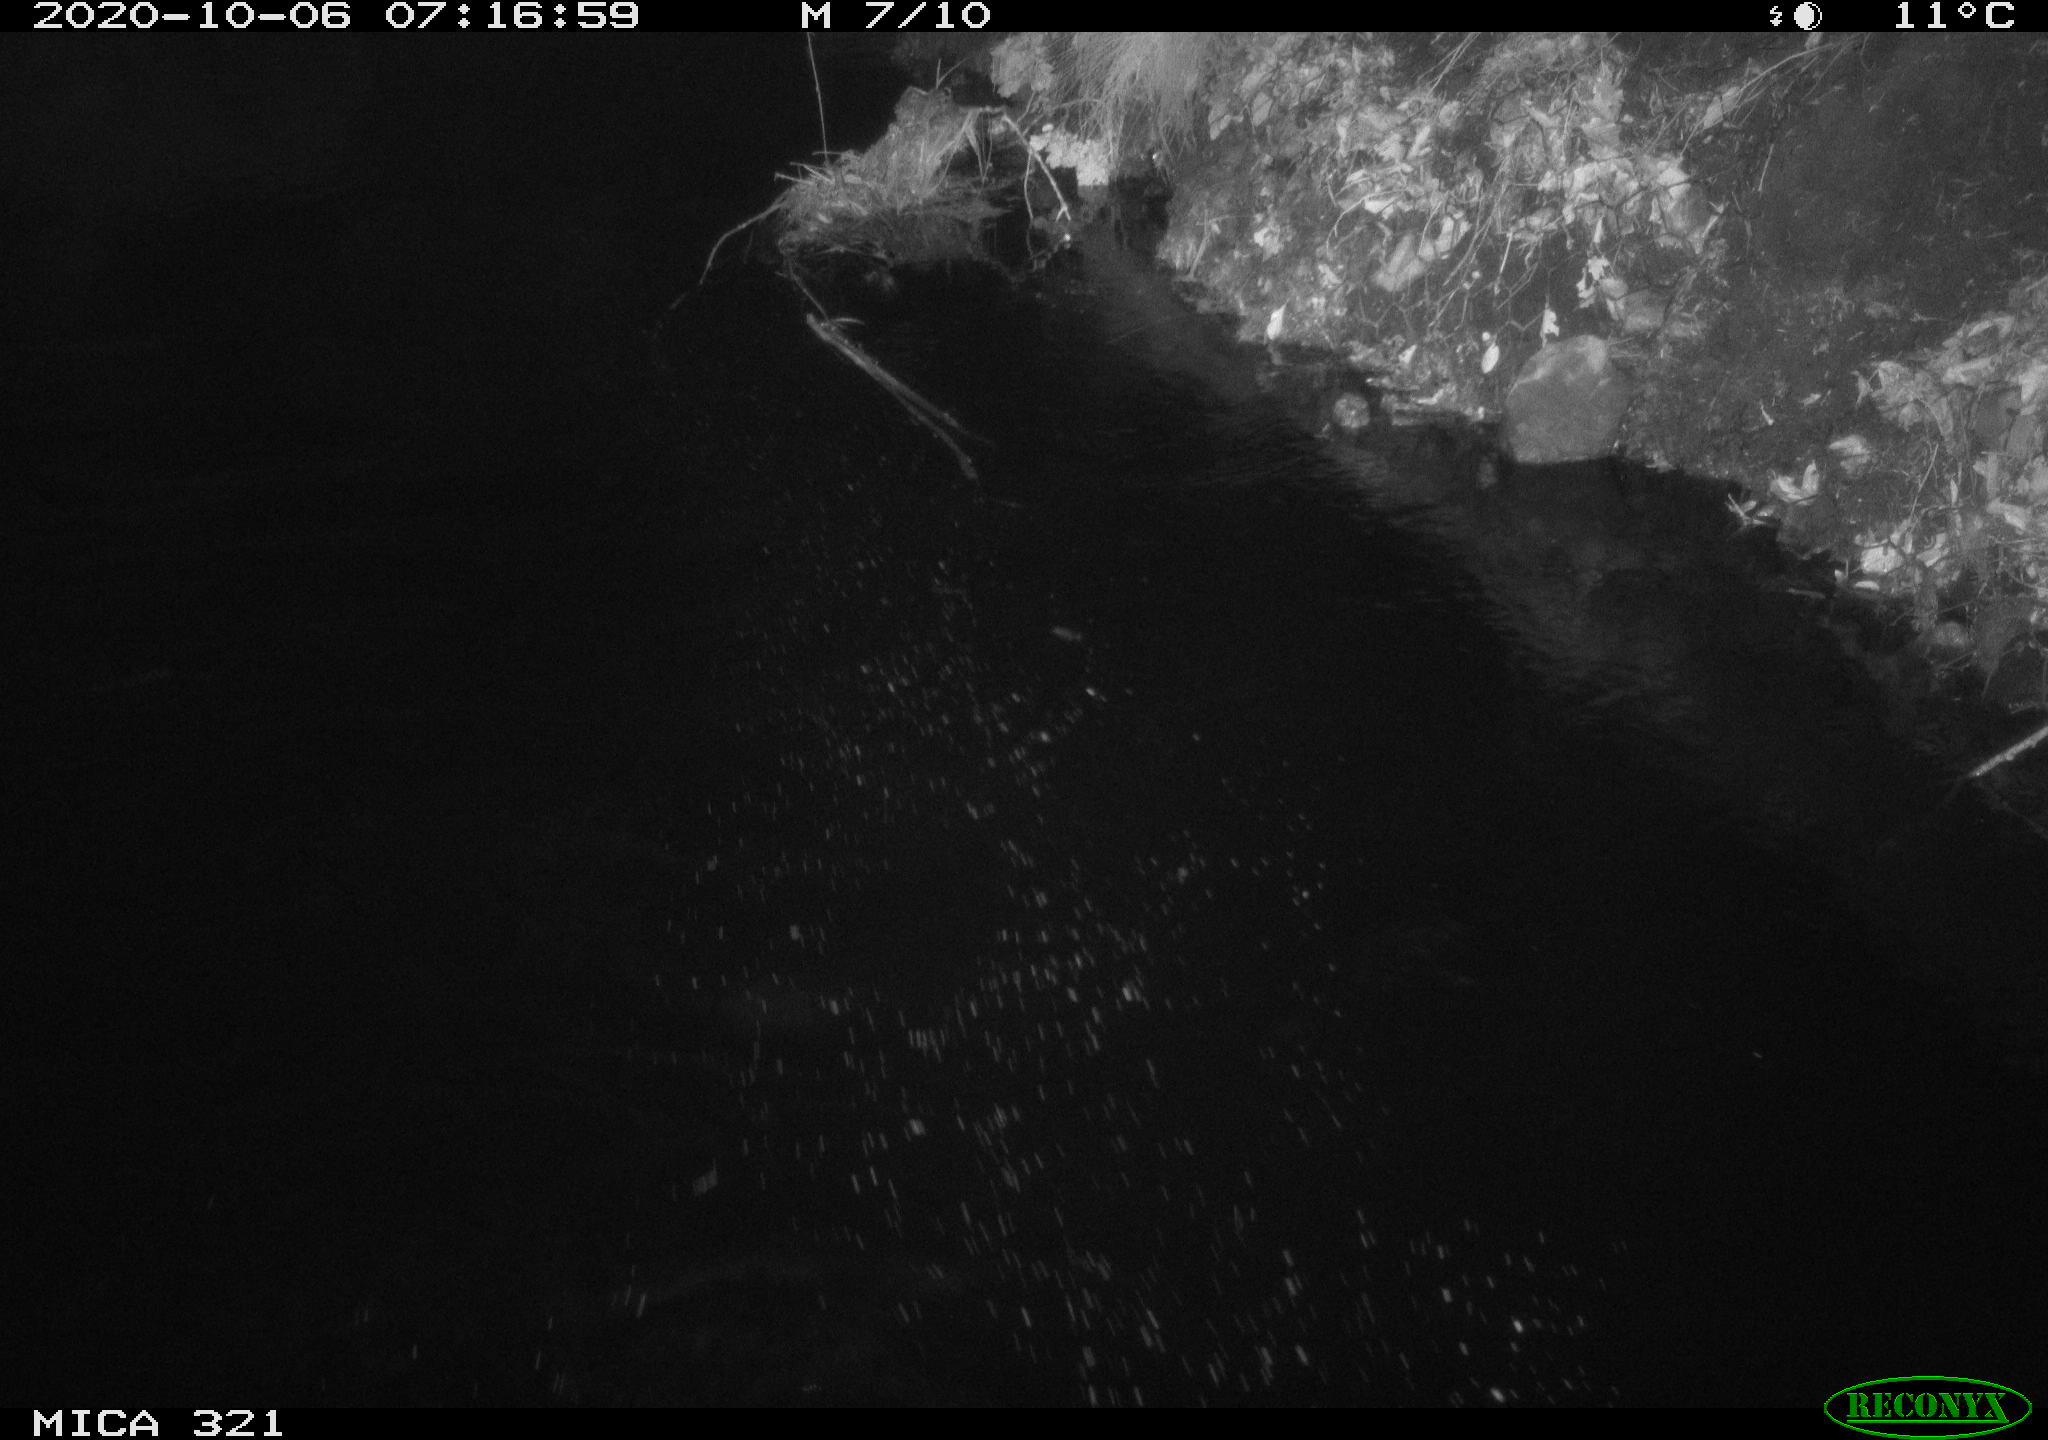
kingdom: Animalia
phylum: Chordata
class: Aves
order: Anseriformes
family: Anatidae
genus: Anas
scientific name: Anas platyrhynchos
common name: Mallard
